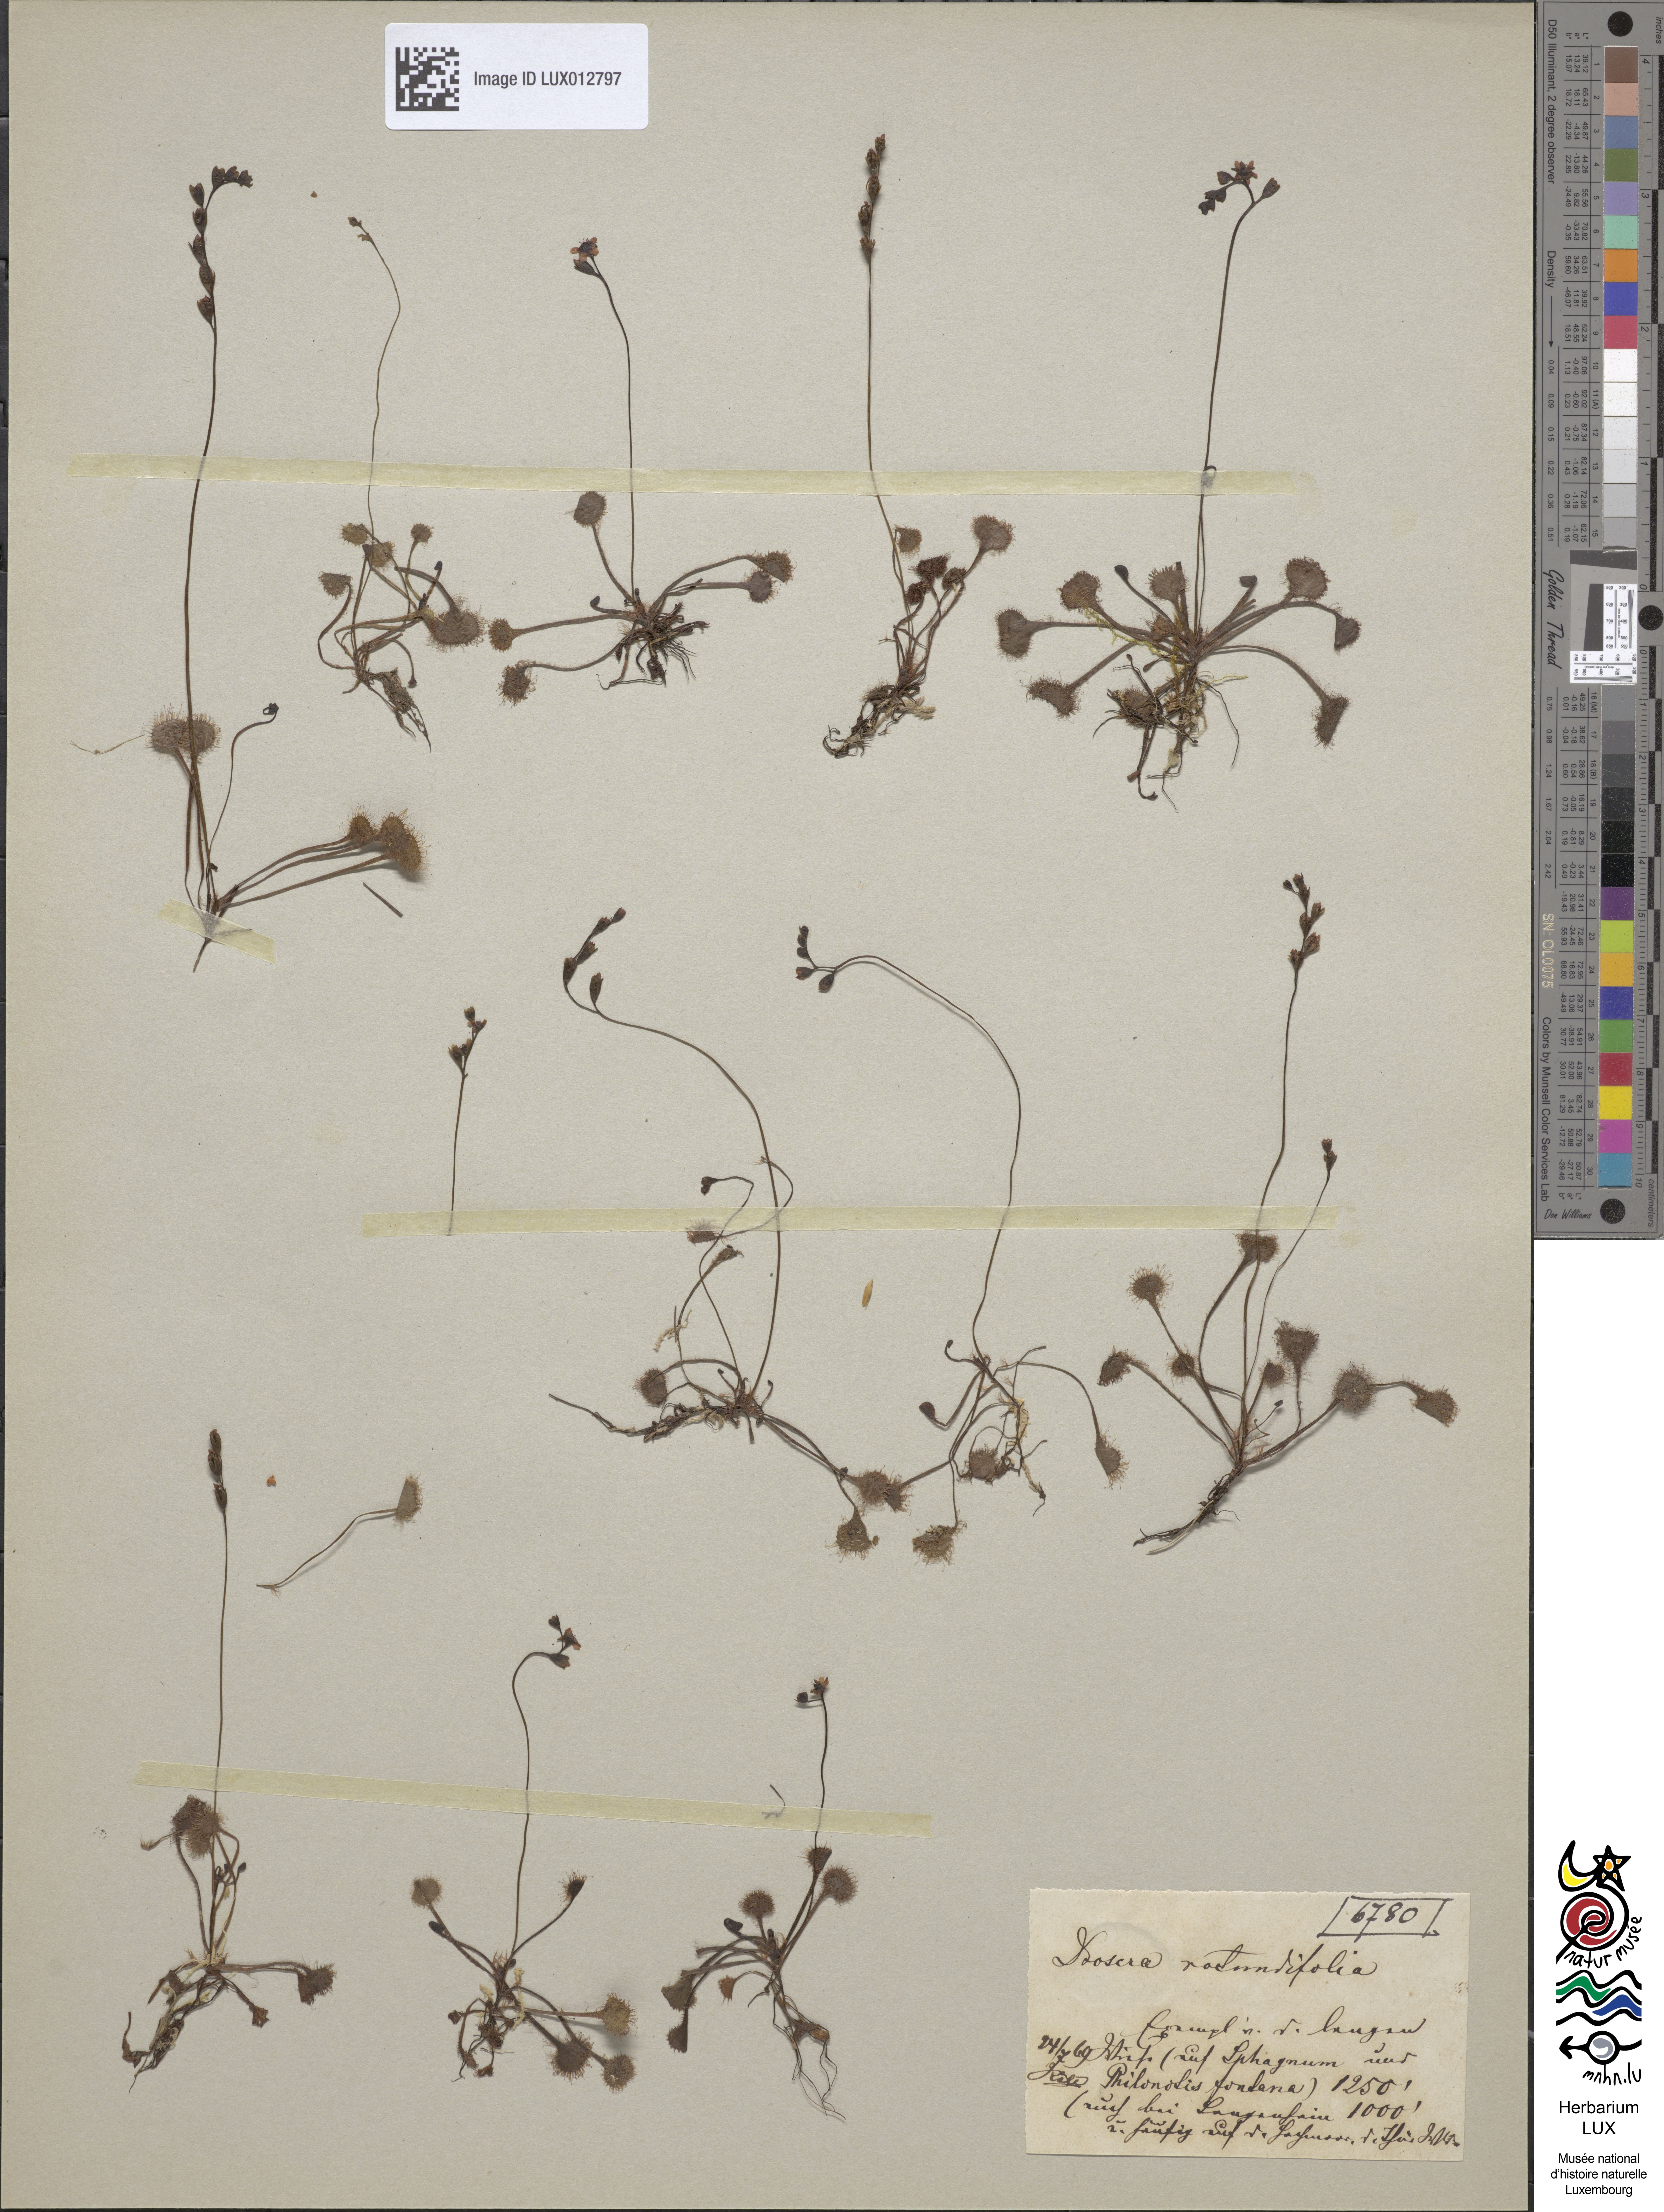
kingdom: Plantae
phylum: Tracheophyta
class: Magnoliopsida
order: Caryophyllales
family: Droseraceae
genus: Drosera
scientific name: Drosera rotundifolia
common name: Round-leaved sundew
